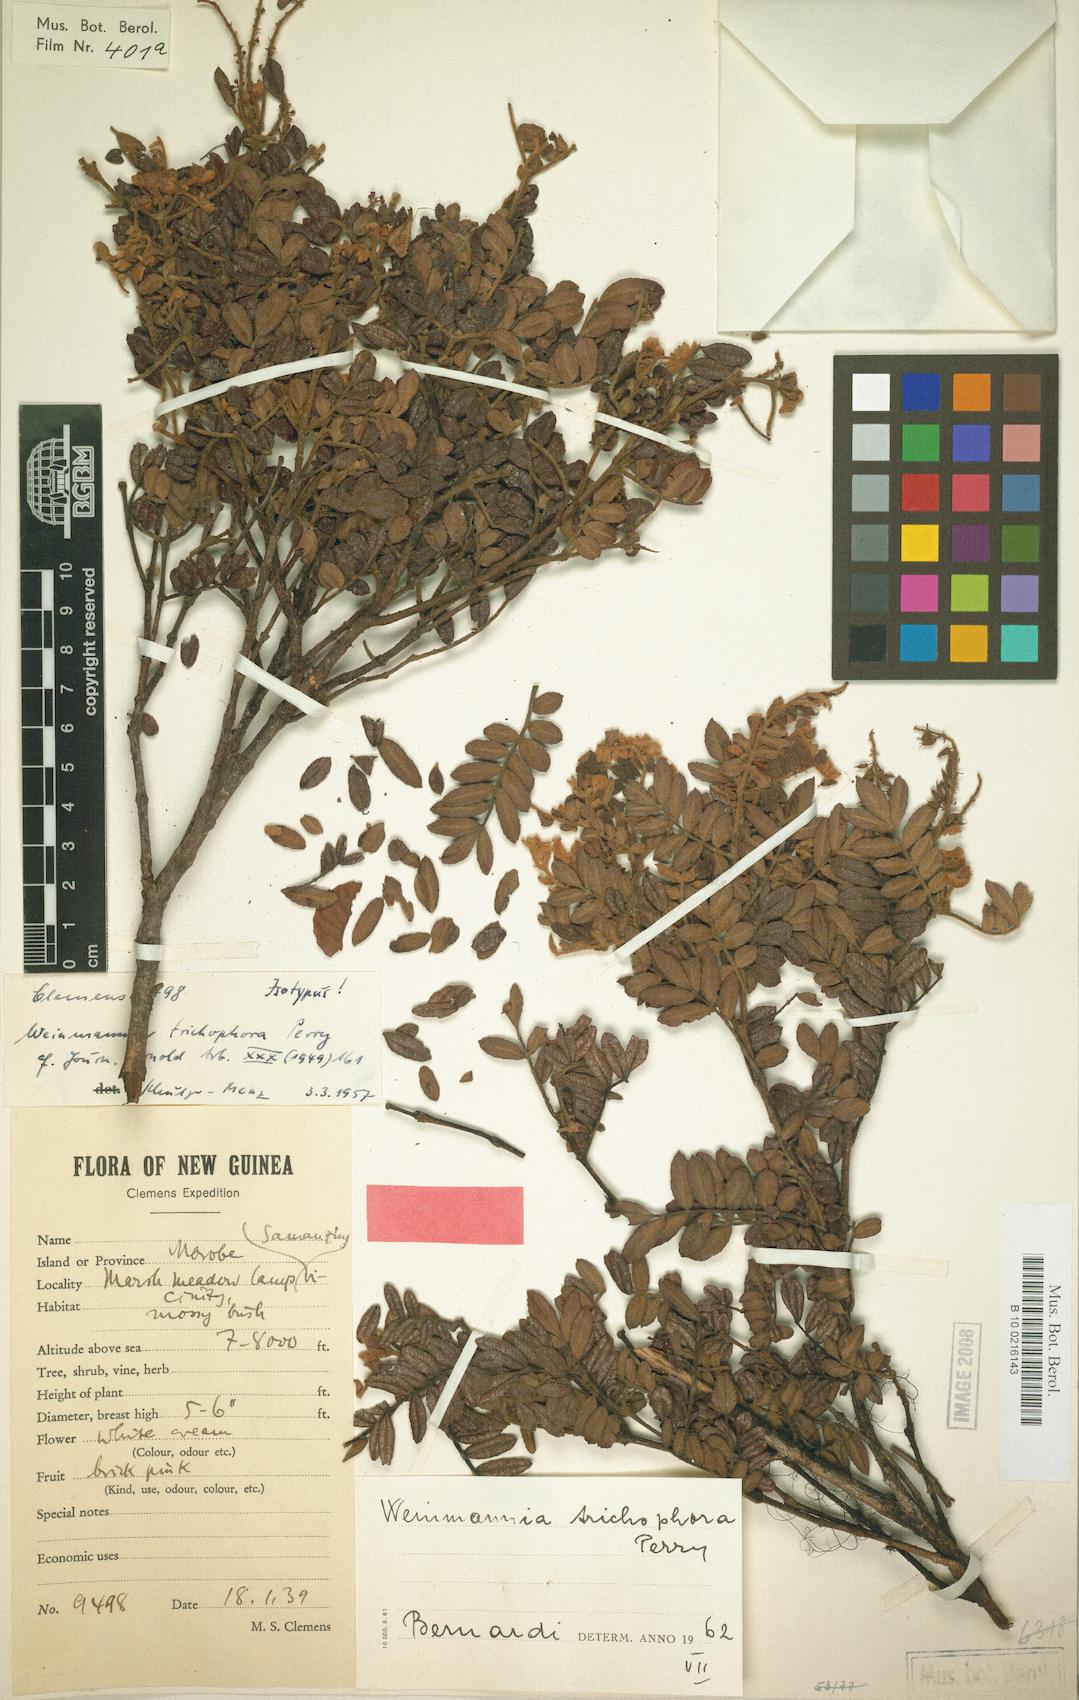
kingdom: Plantae
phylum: Tracheophyta
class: Magnoliopsida
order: Oxalidales
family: Cunoniaceae
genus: Pterophylla
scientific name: Pterophylla urdanetensis
